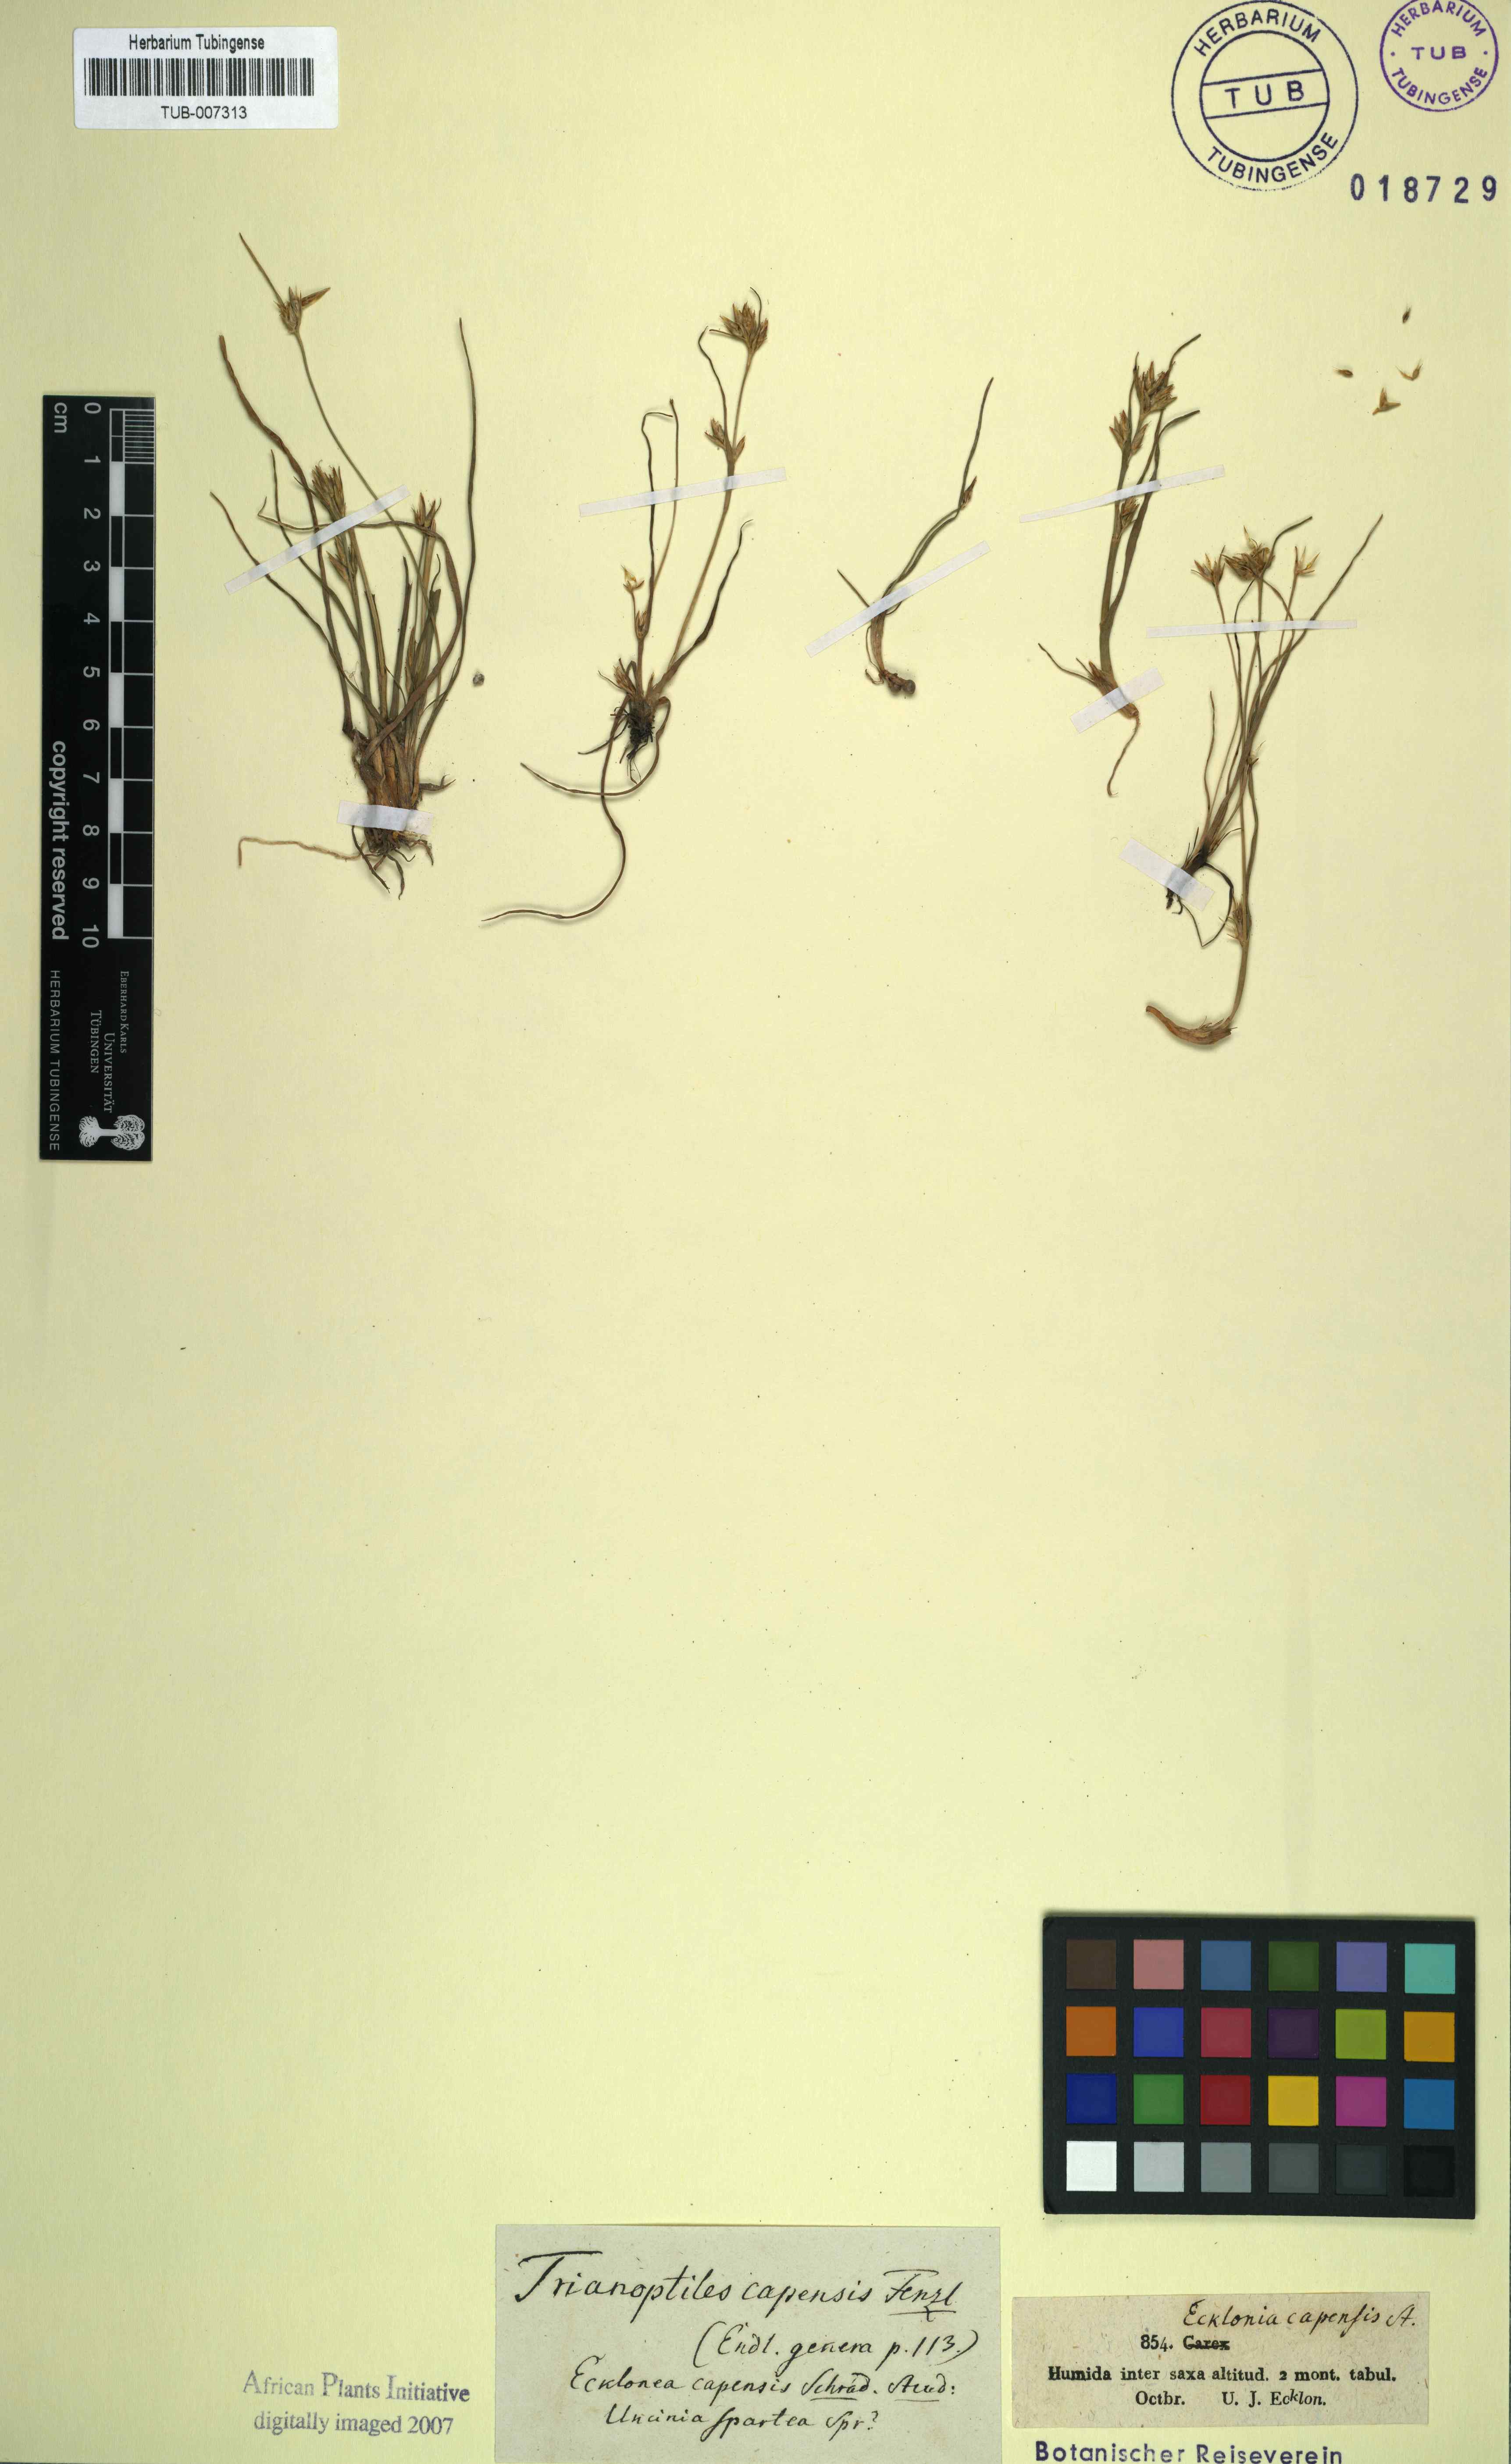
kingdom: Plantae
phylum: Tracheophyta
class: Liliopsida
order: Poales
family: Cyperaceae
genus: Trianoptiles
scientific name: Trianoptiles capensis
